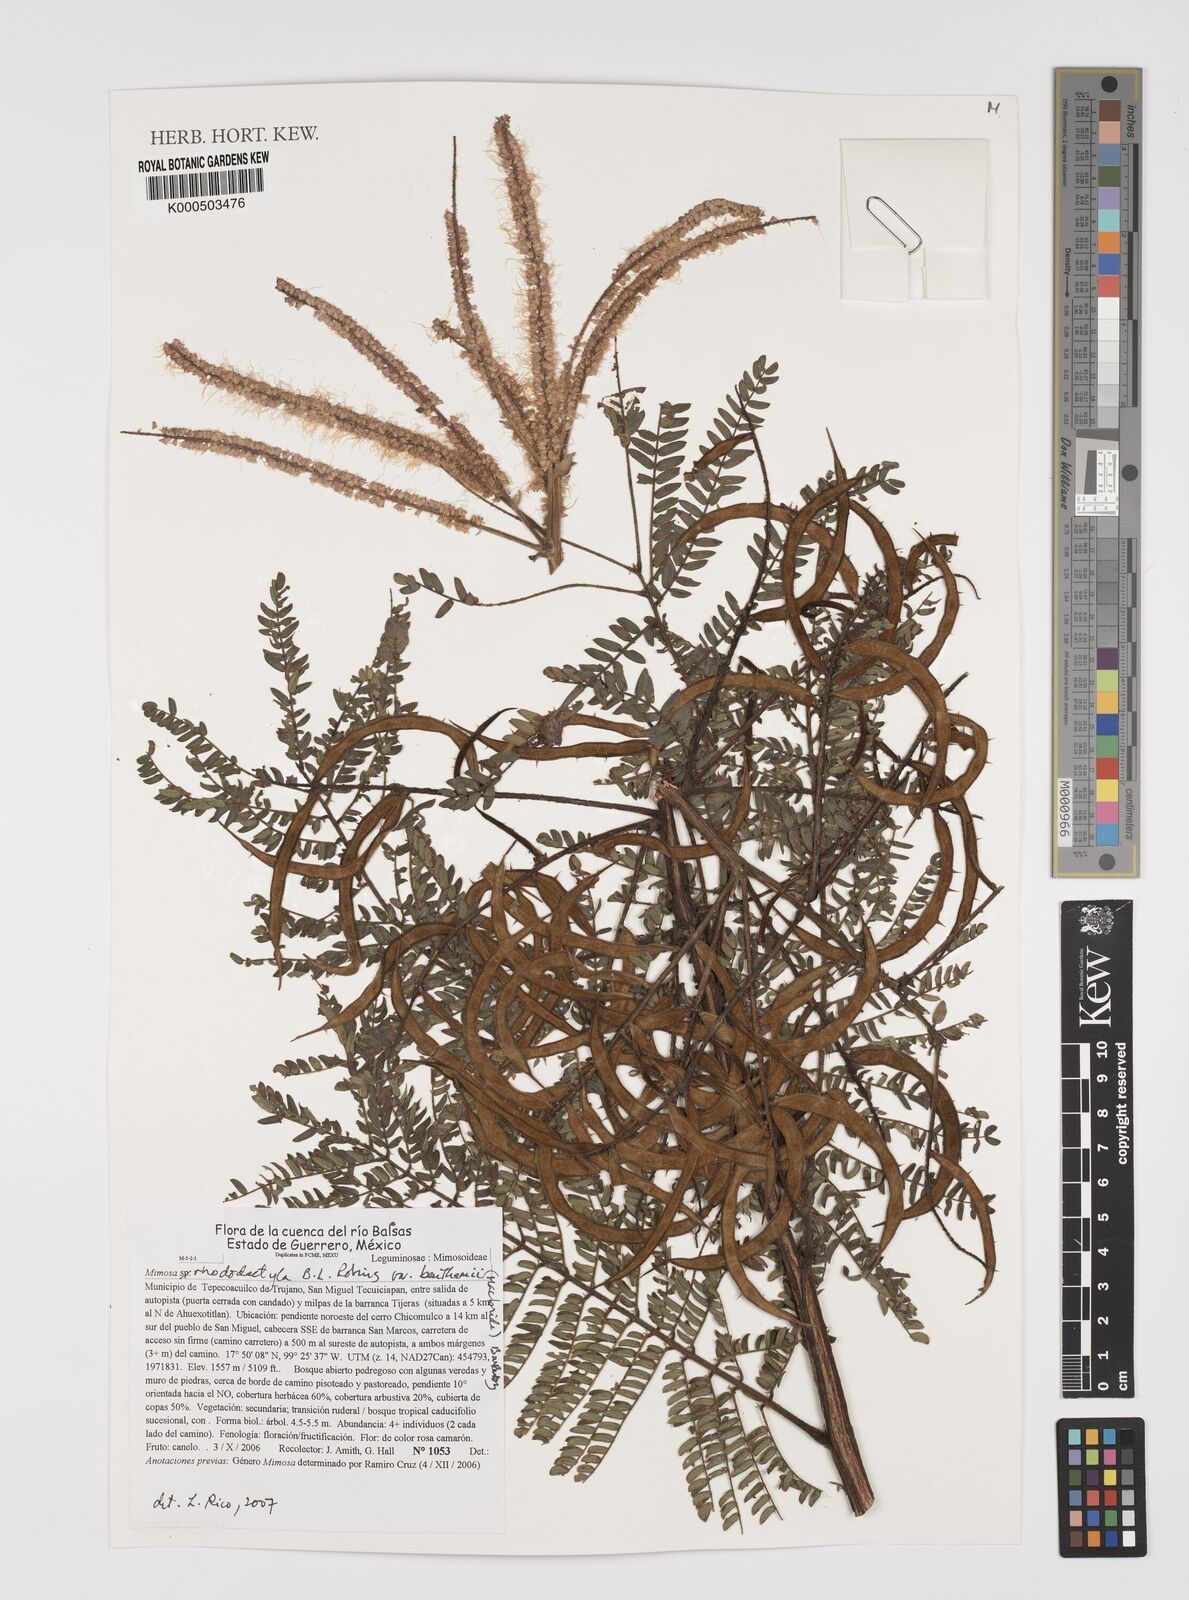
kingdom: Plantae
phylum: Tracheophyta
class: Magnoliopsida
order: Fabales
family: Fabaceae
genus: Mimosa
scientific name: Mimosa benthamii
